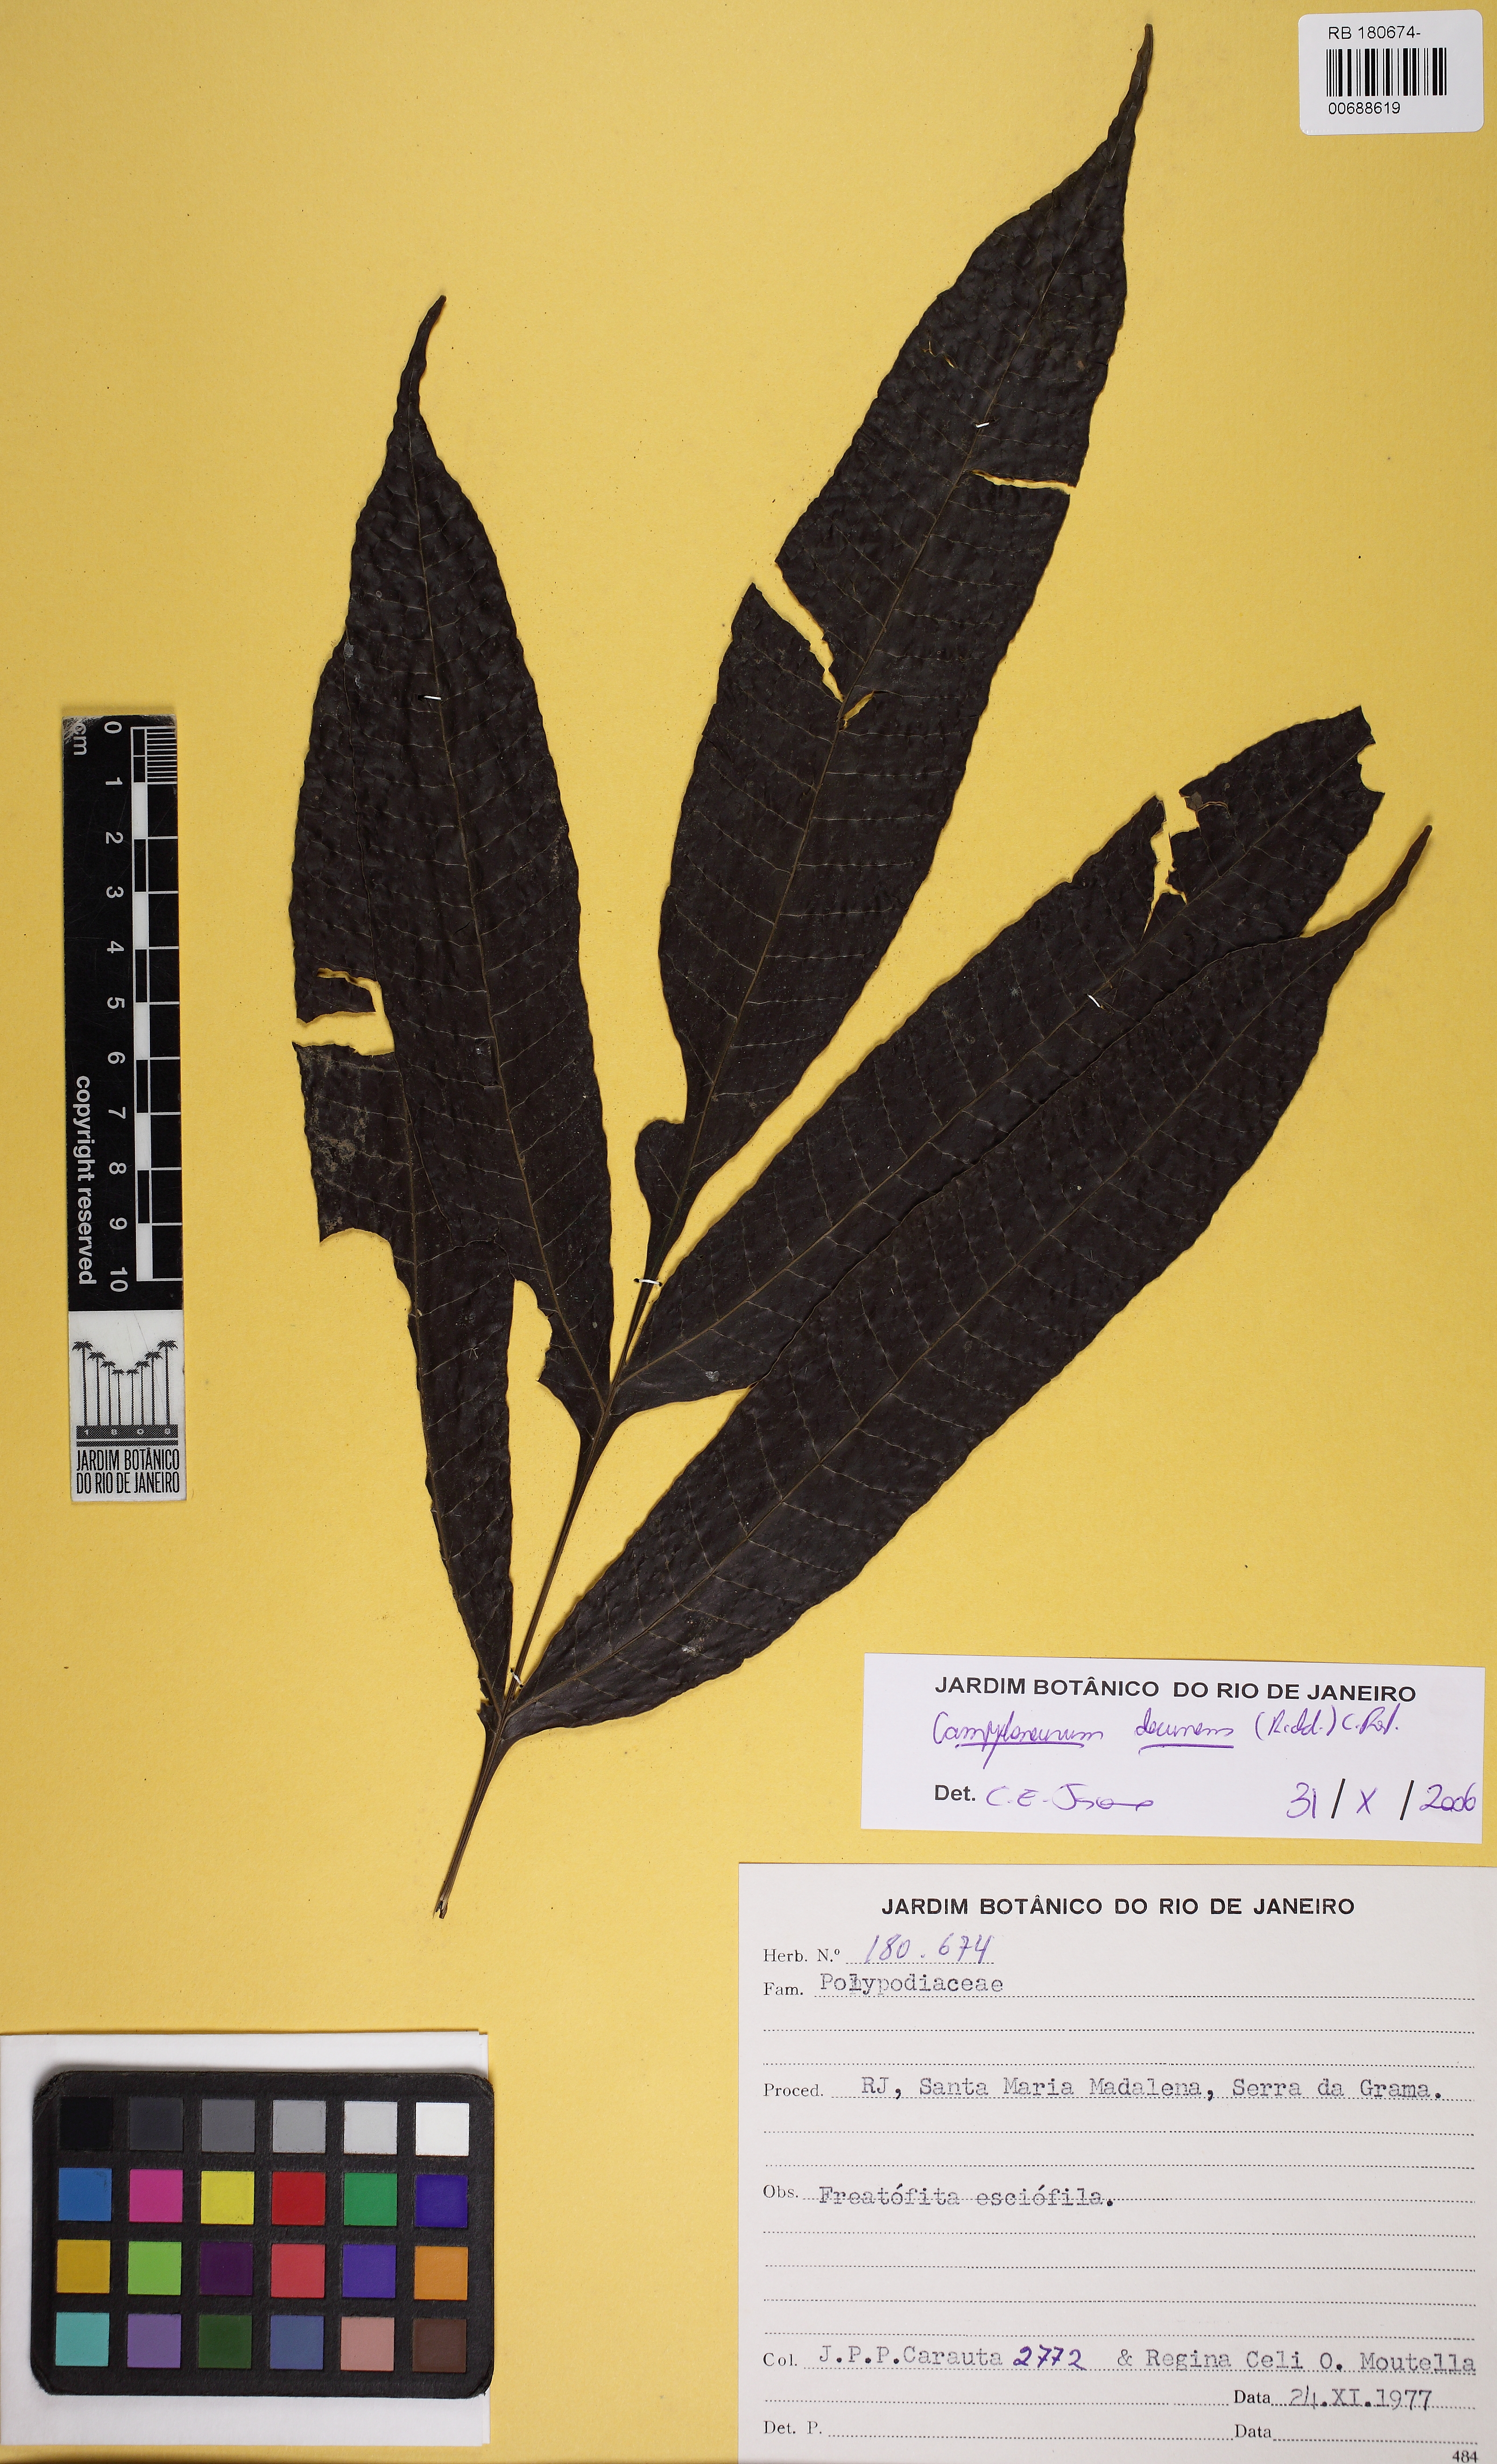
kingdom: Plantae
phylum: Tracheophyta
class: Polypodiopsida
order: Polypodiales
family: Polypodiaceae
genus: Campyloneurum
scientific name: Campyloneurum decurrens
